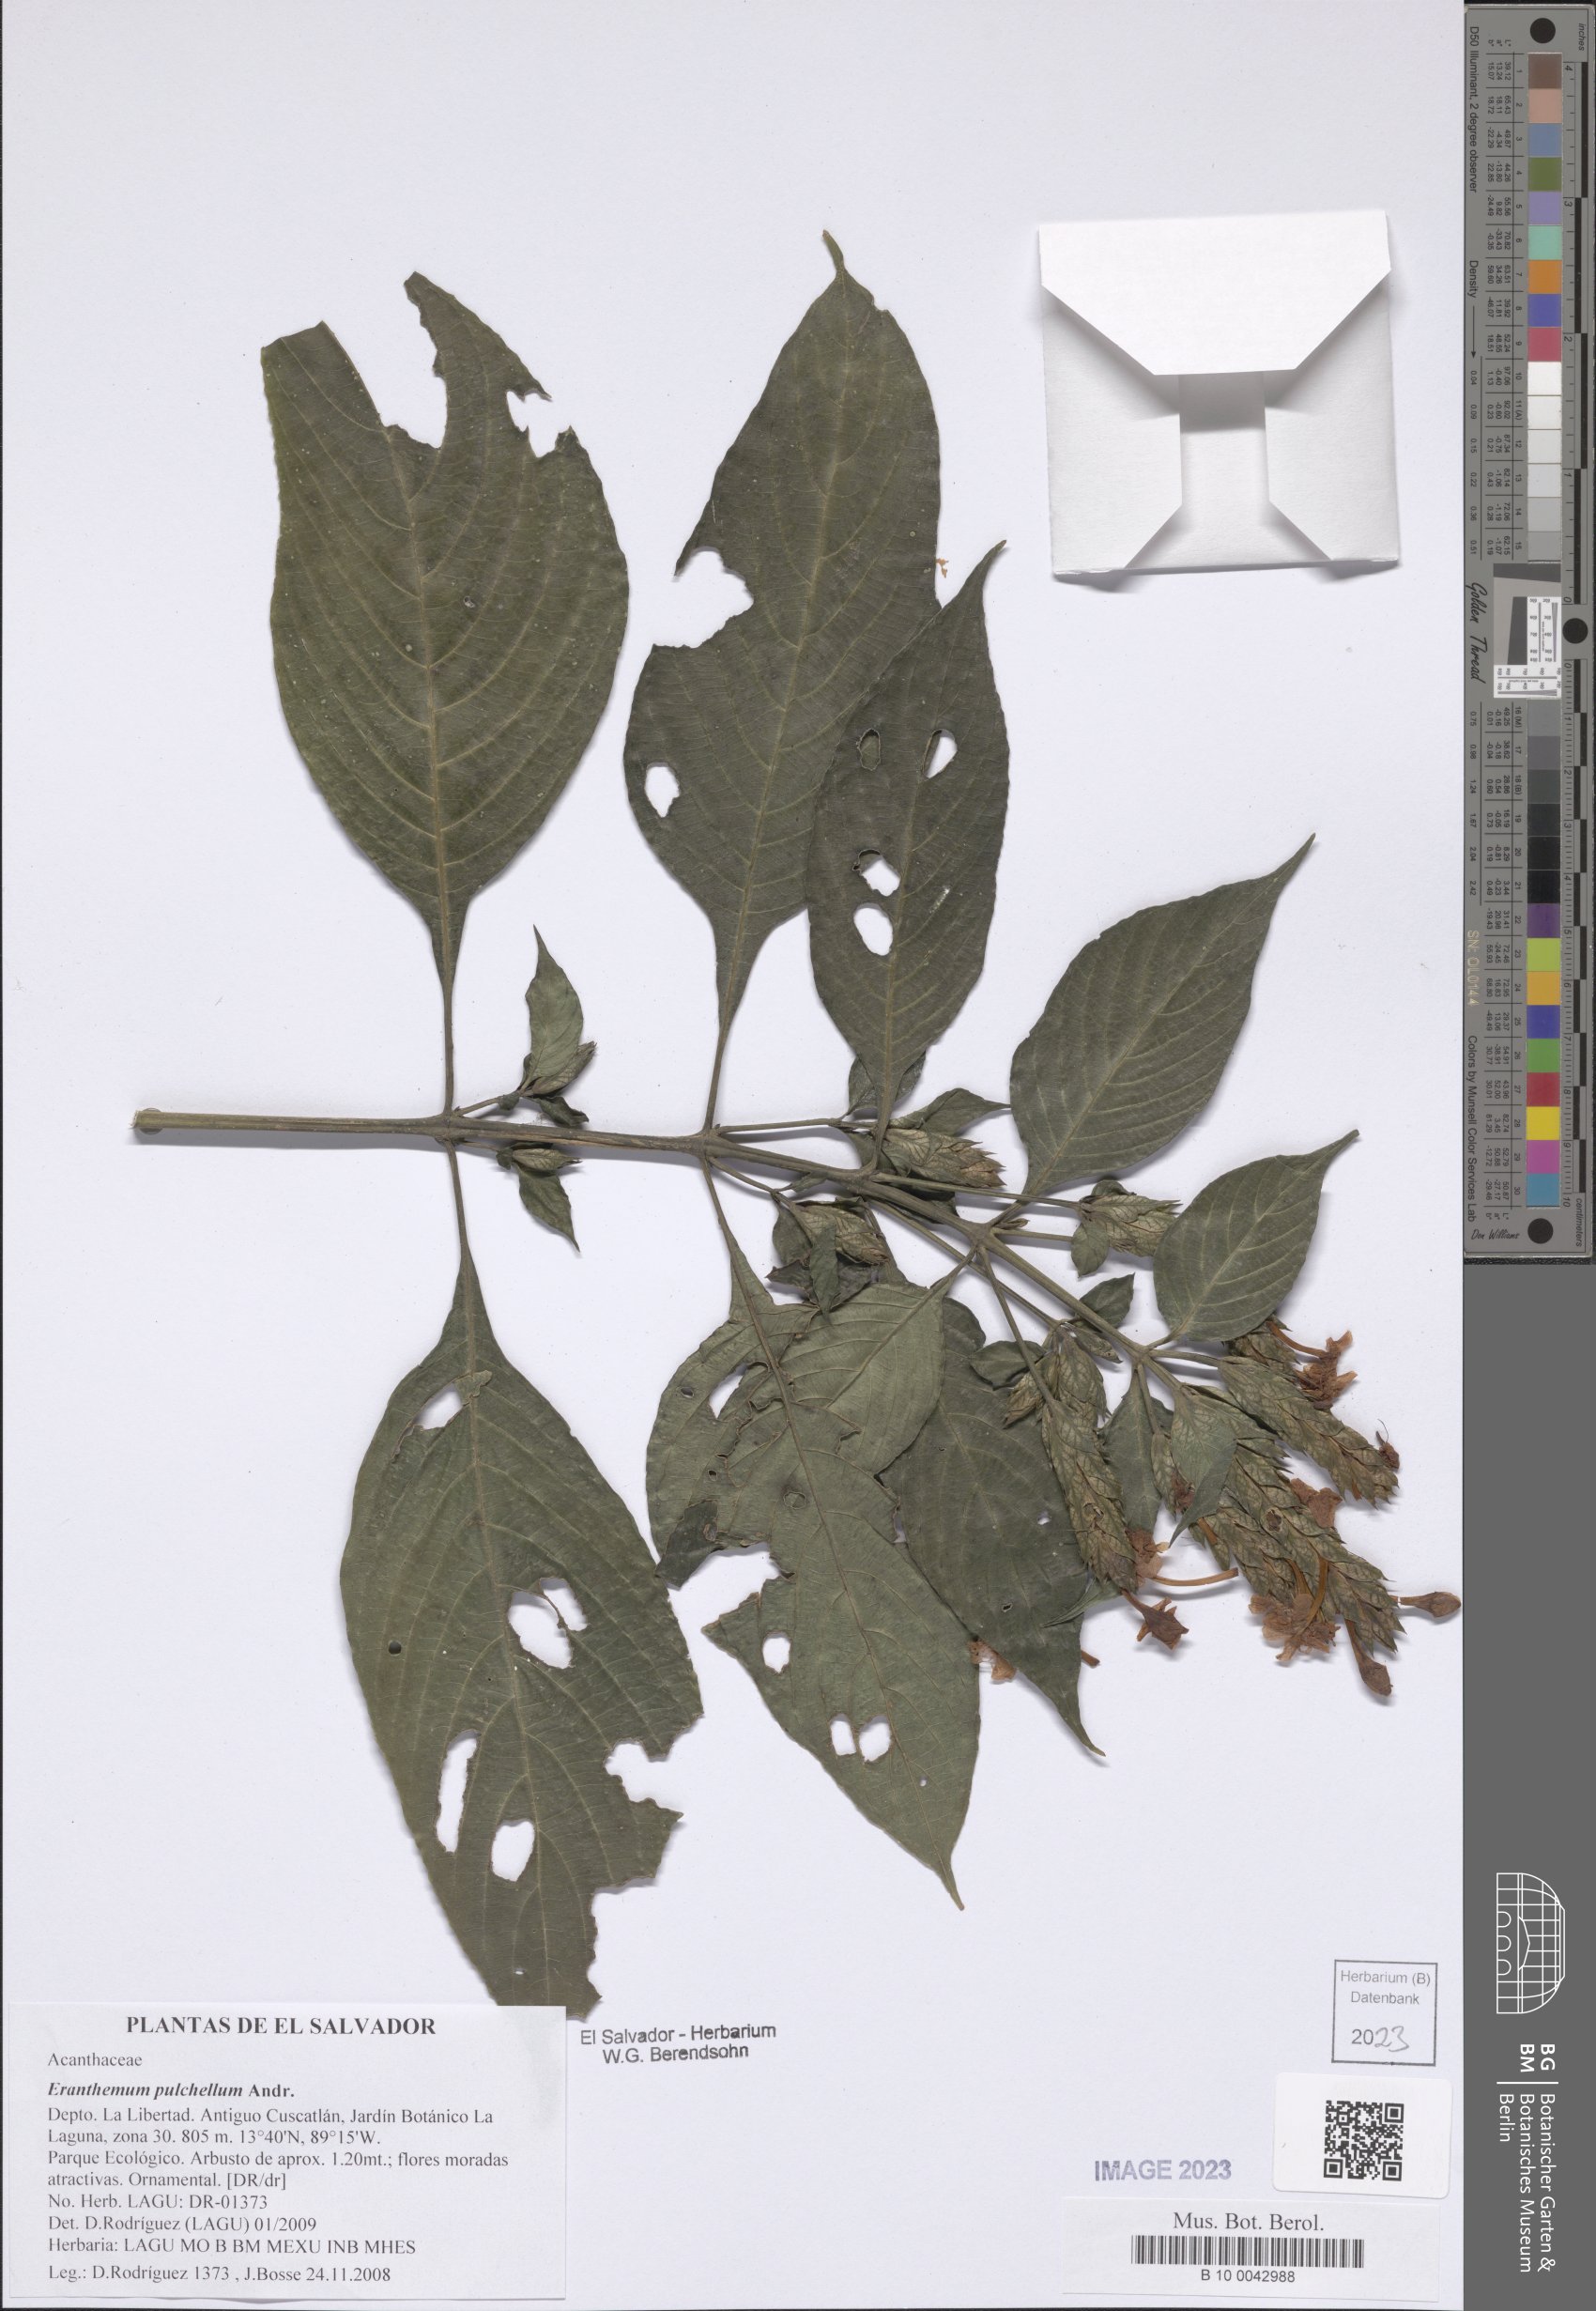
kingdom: Plantae
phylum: Tracheophyta
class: Magnoliopsida
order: Lamiales
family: Acanthaceae
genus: Eranthemum
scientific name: Eranthemum pulchellum
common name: Blue-sage
